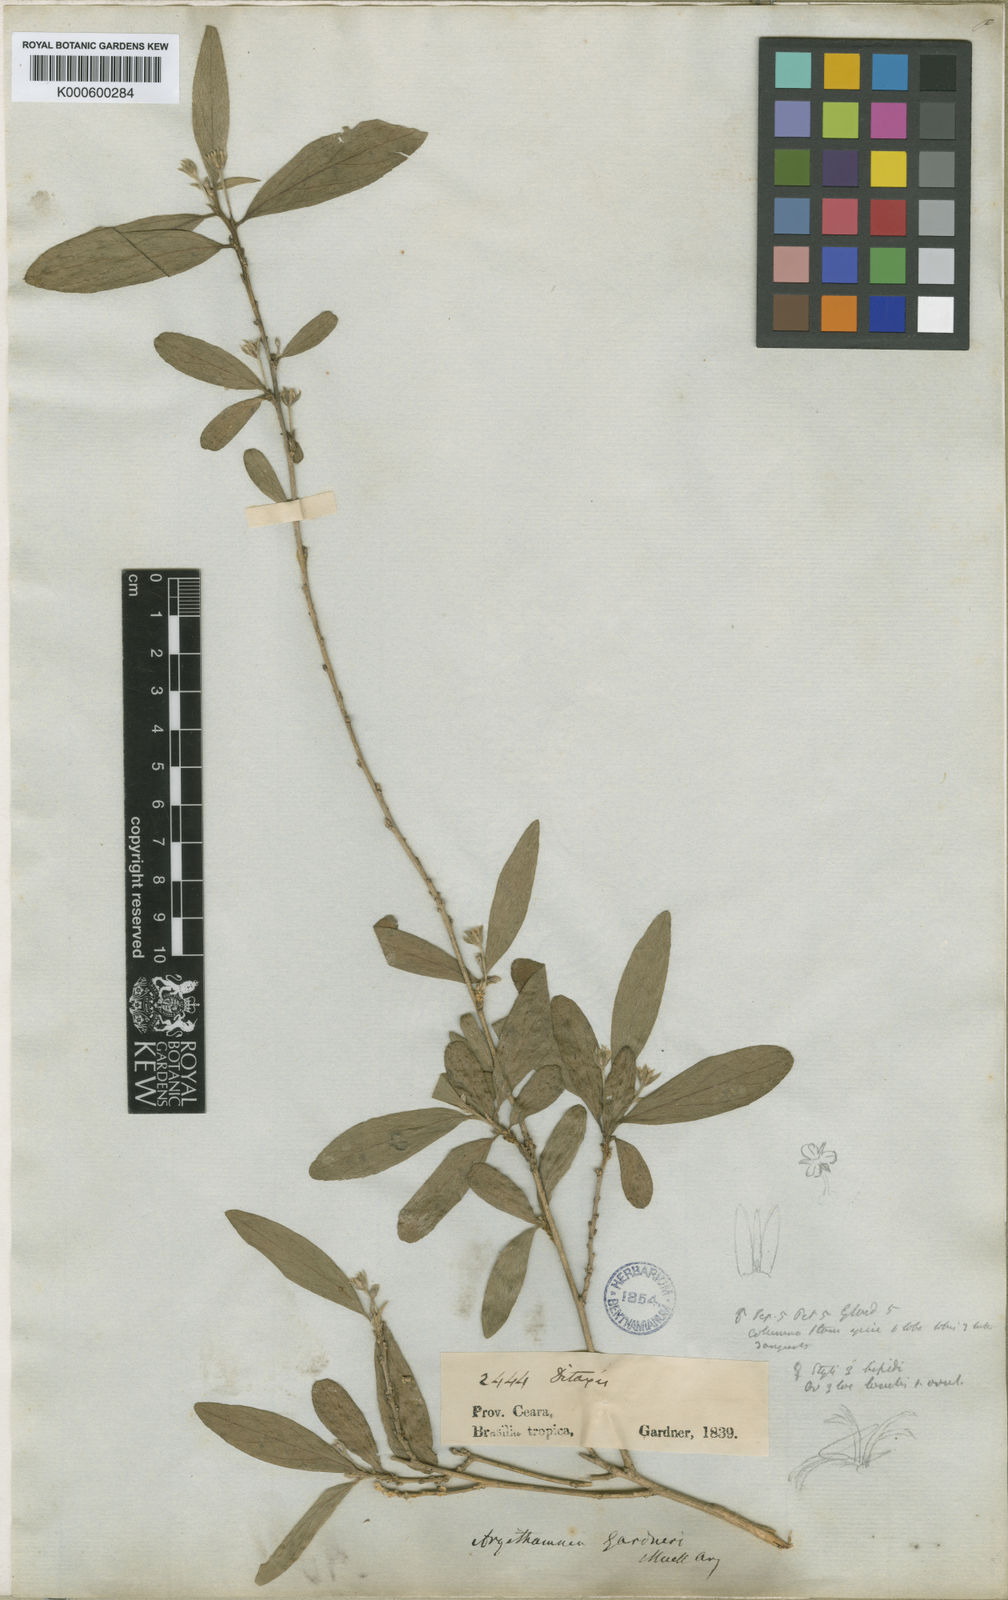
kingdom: Plantae
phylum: Tracheophyta
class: Magnoliopsida
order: Malpighiales
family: Euphorbiaceae
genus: Ditaxis
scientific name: Ditaxis
